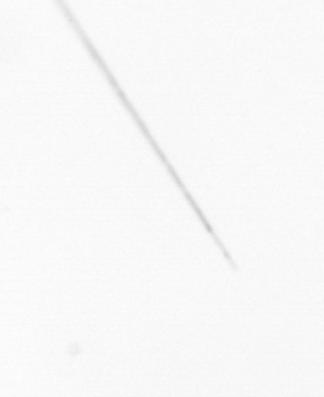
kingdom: Chromista
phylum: Ochrophyta
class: Bacillariophyceae
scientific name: Bacillariophyceae
